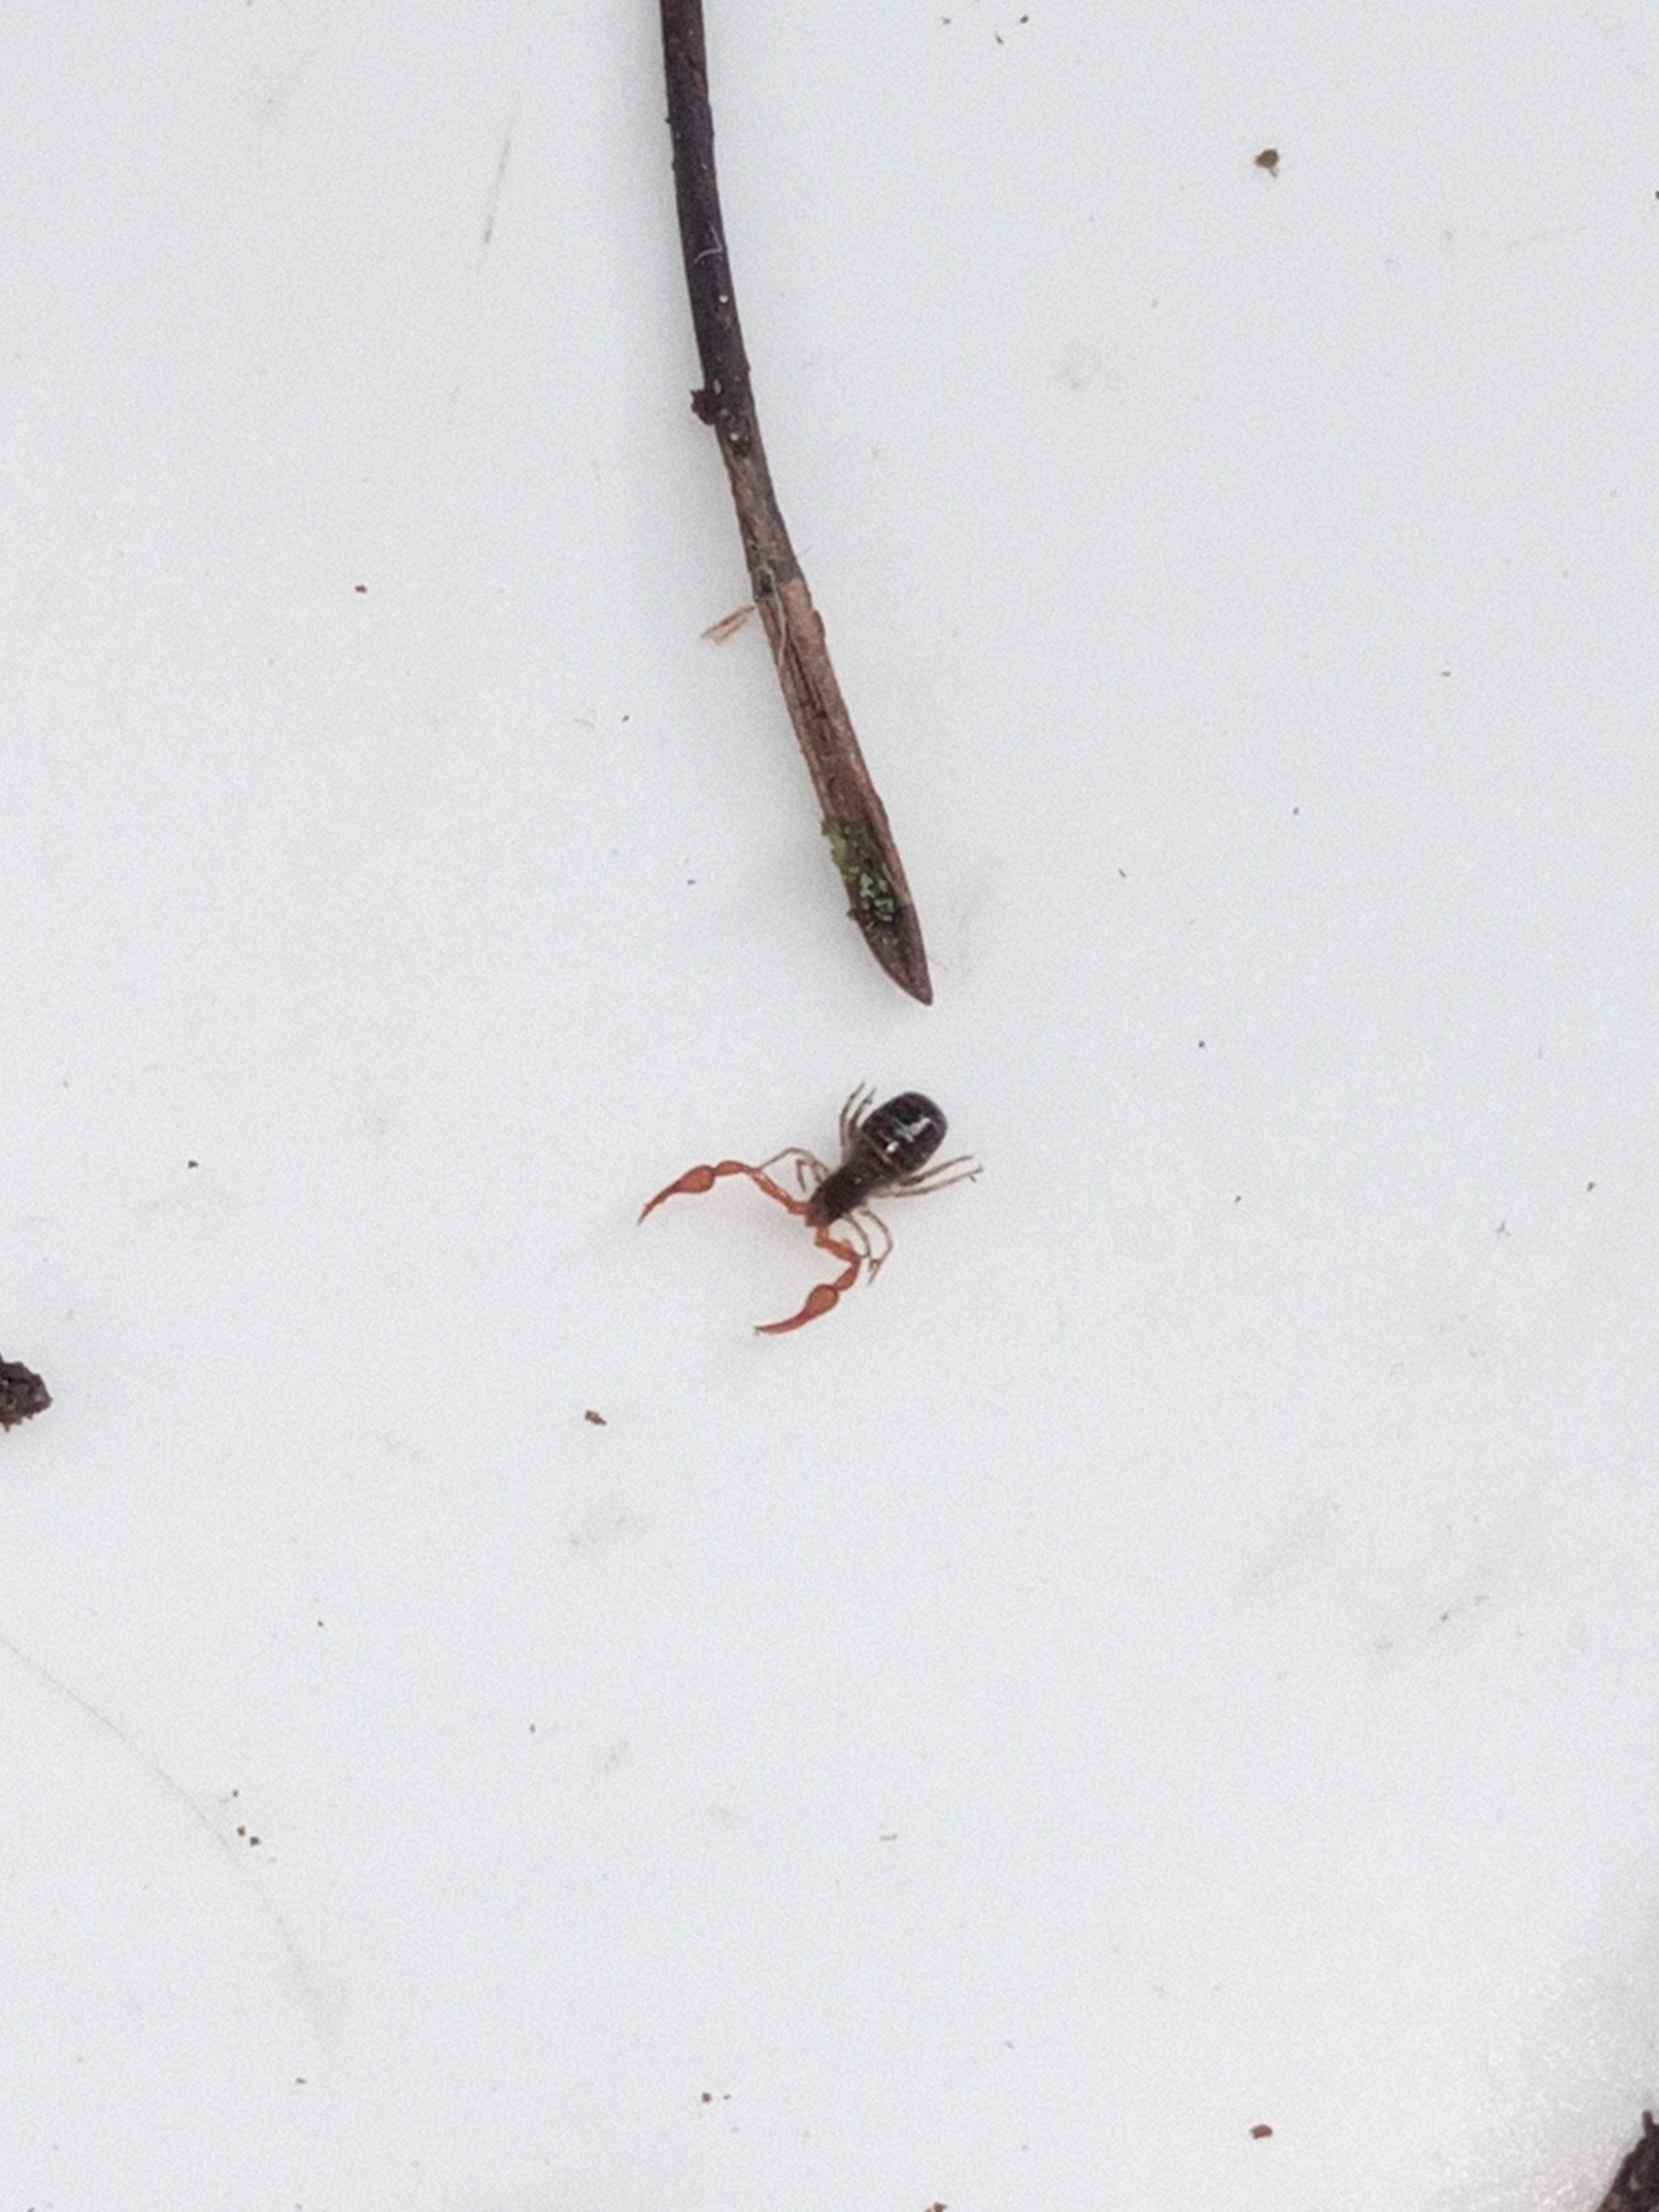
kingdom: Animalia
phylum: Arthropoda
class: Arachnida
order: Pseudoscorpiones
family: Neobisiidae
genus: Neobisium
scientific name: Neobisium carcinoides
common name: Almindelig mosskorpion
